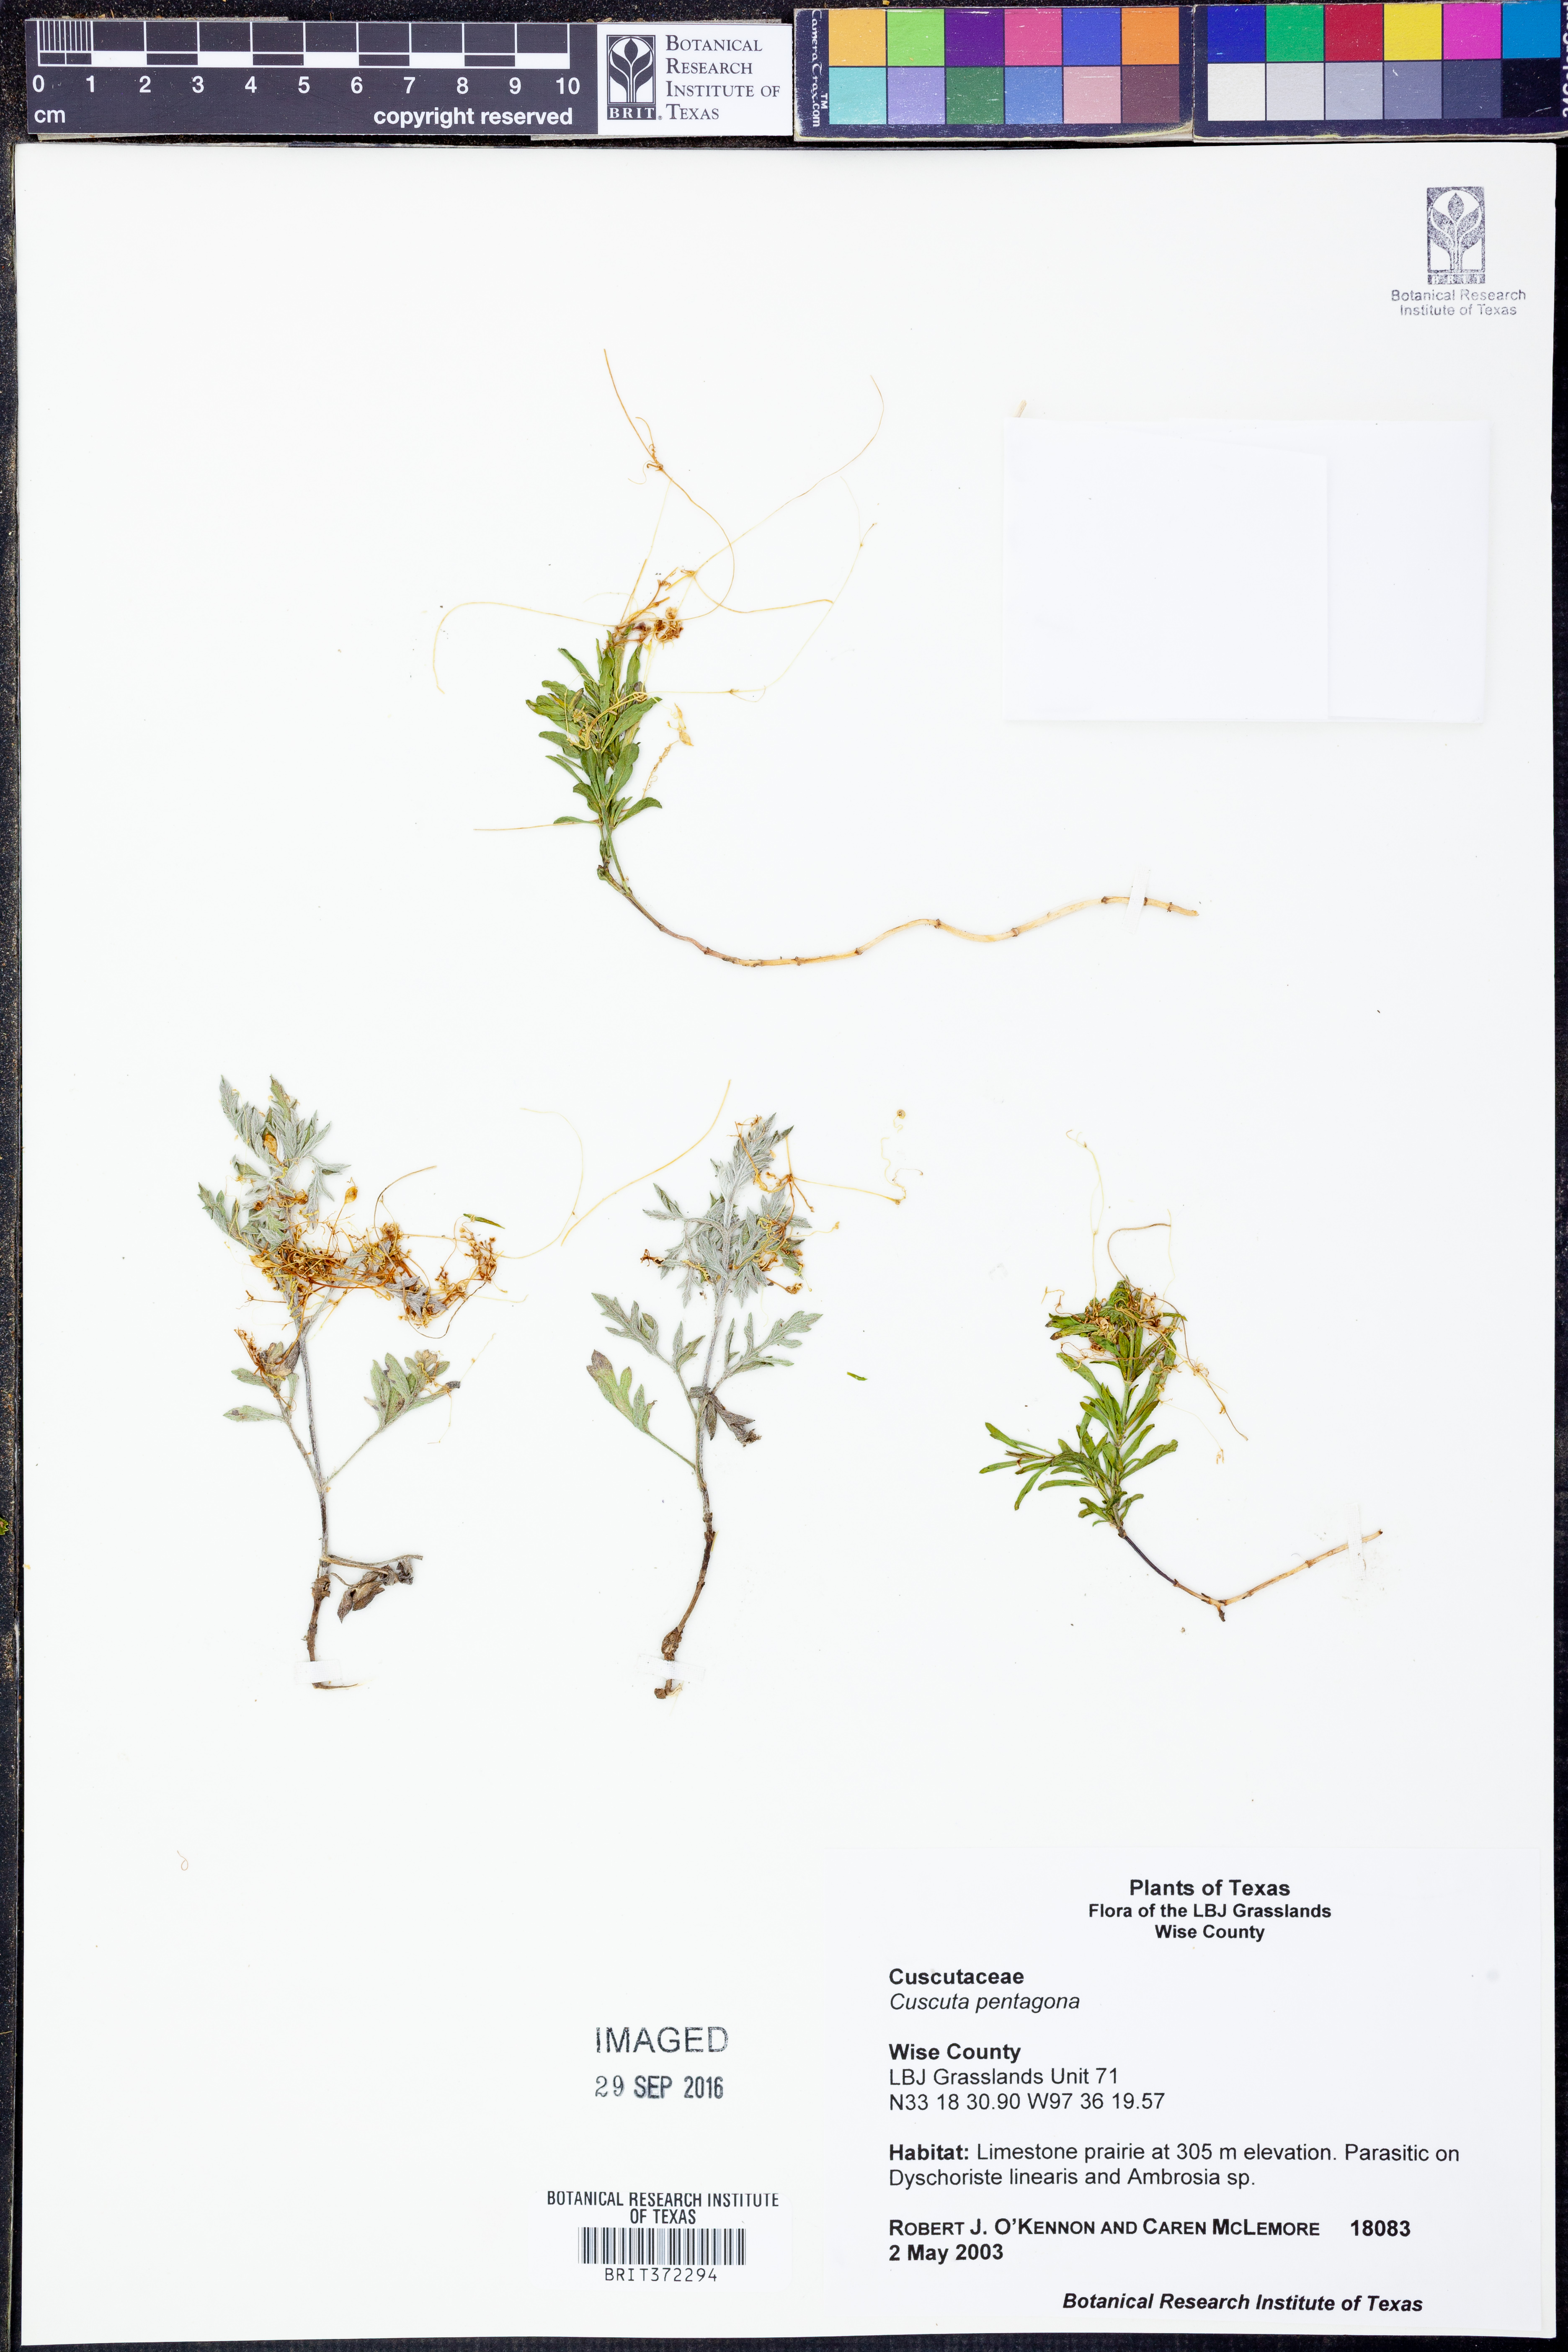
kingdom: Plantae
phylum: Tracheophyta
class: Magnoliopsida
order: Solanales
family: Convolvulaceae
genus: Cuscuta
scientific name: Cuscuta pentagona
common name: Fiveangled dodder
